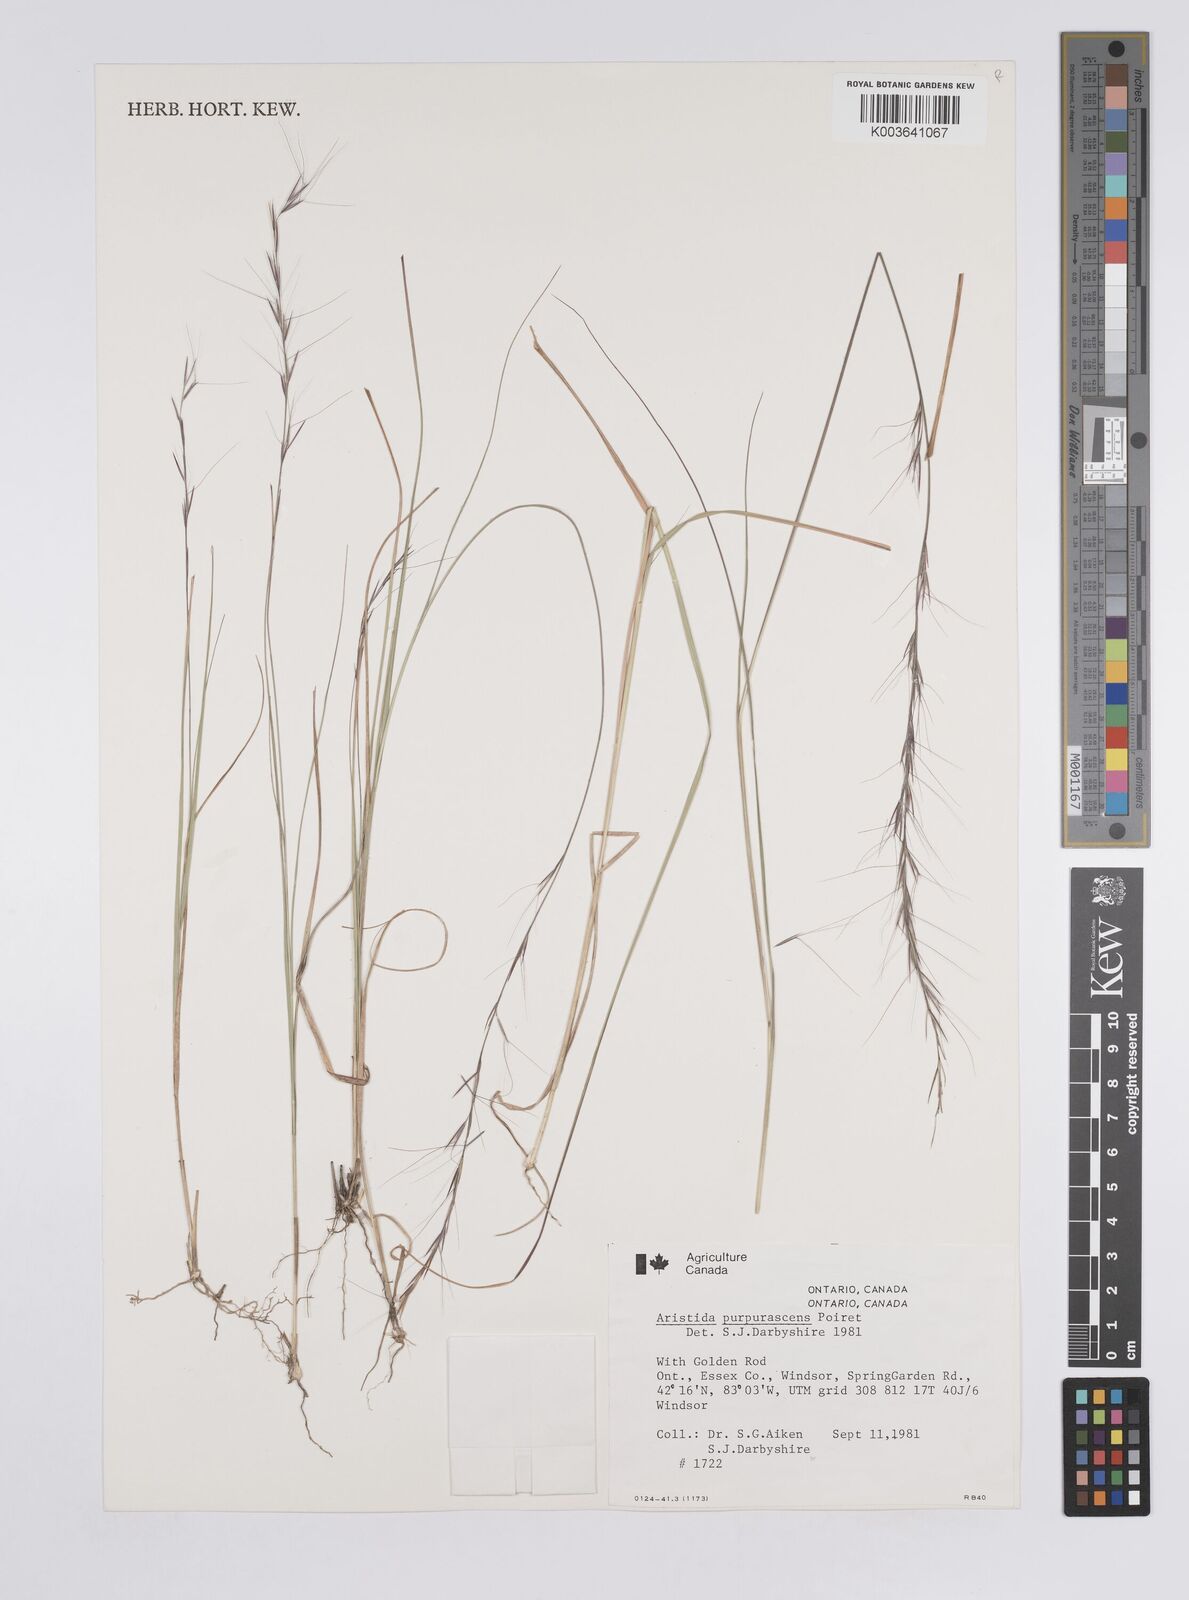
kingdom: Plantae
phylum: Tracheophyta
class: Liliopsida
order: Poales
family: Poaceae
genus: Aristida
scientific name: Aristida purpurascens
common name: Arrow-feather
